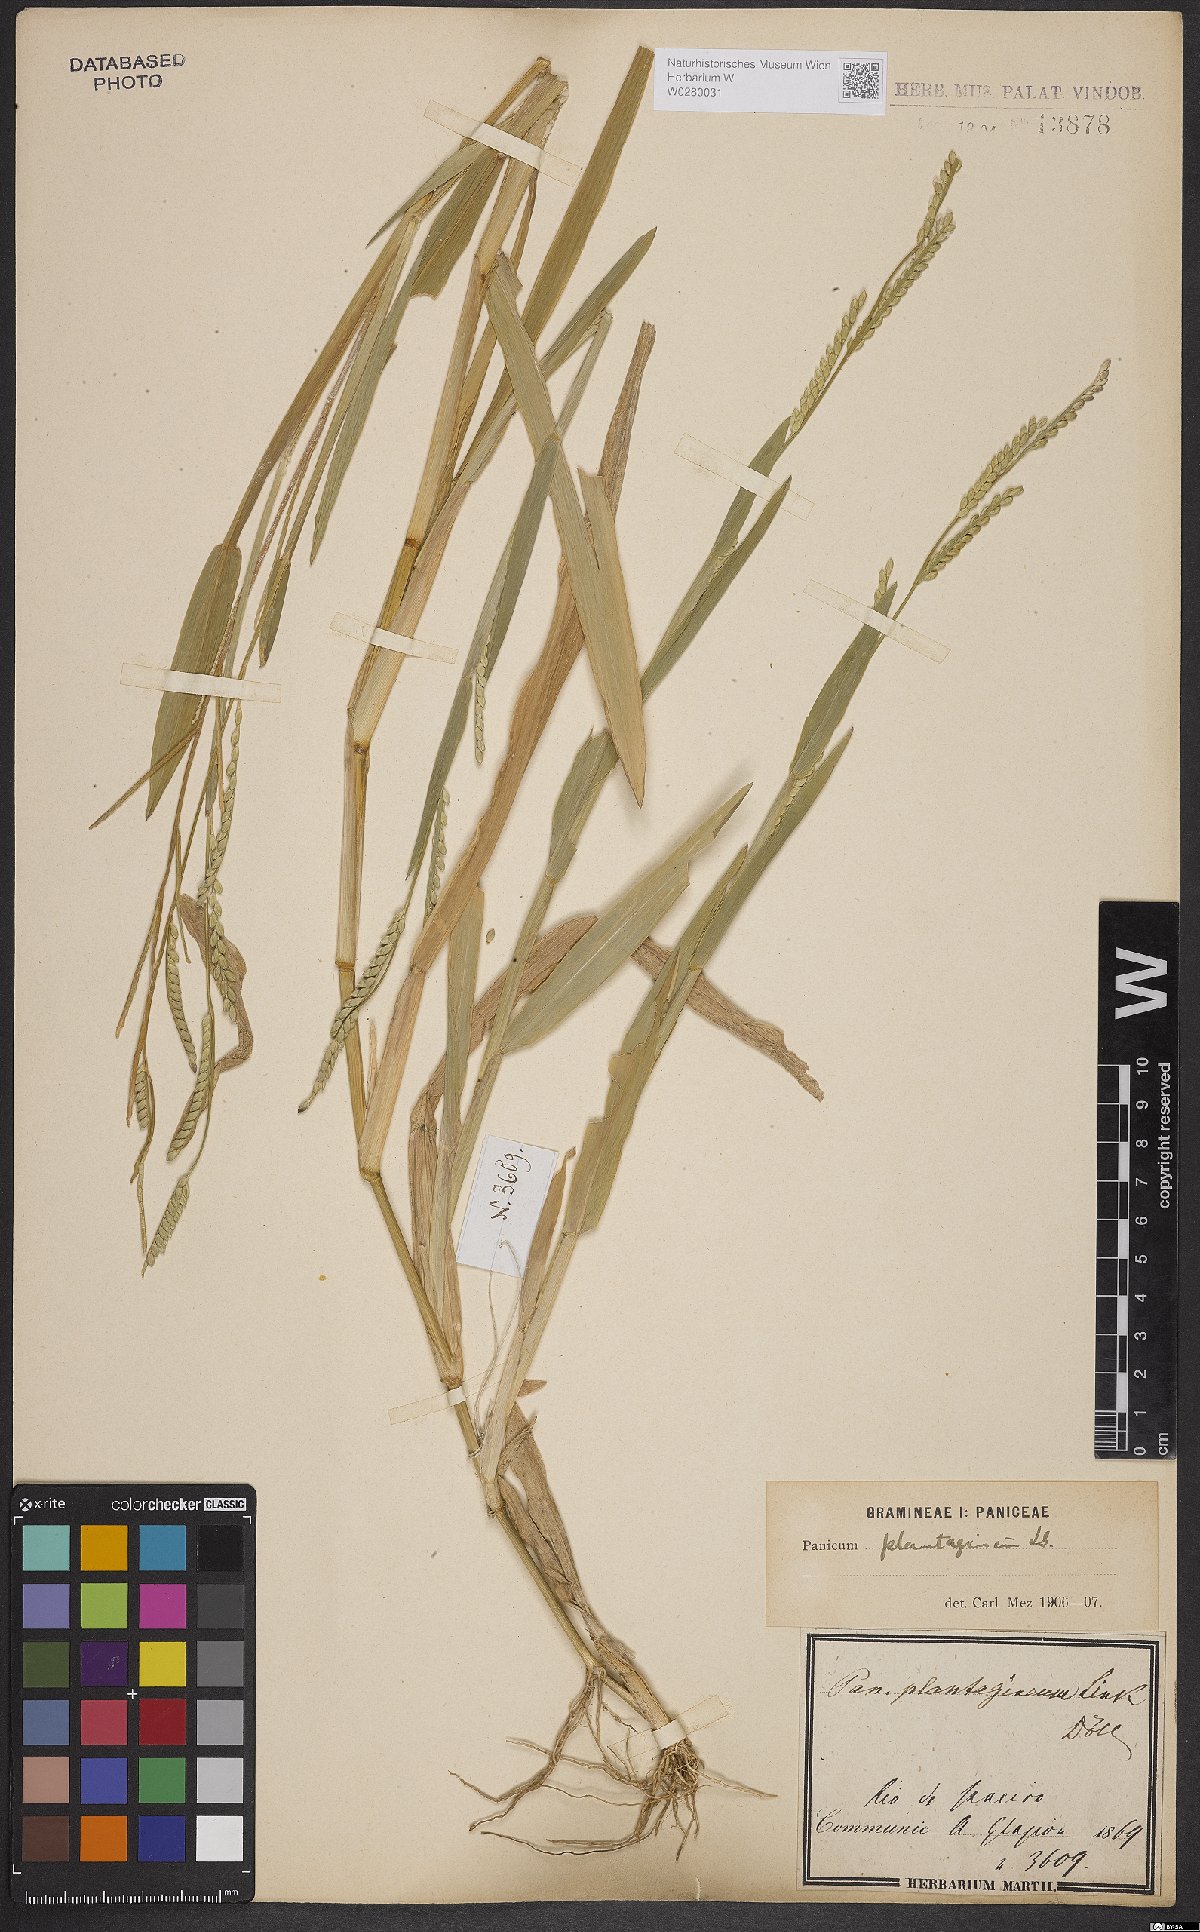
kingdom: Plantae
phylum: Tracheophyta
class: Liliopsida
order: Poales
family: Poaceae
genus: Urochloa
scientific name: Urochloa plantaginea
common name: Plantain signalgrass
